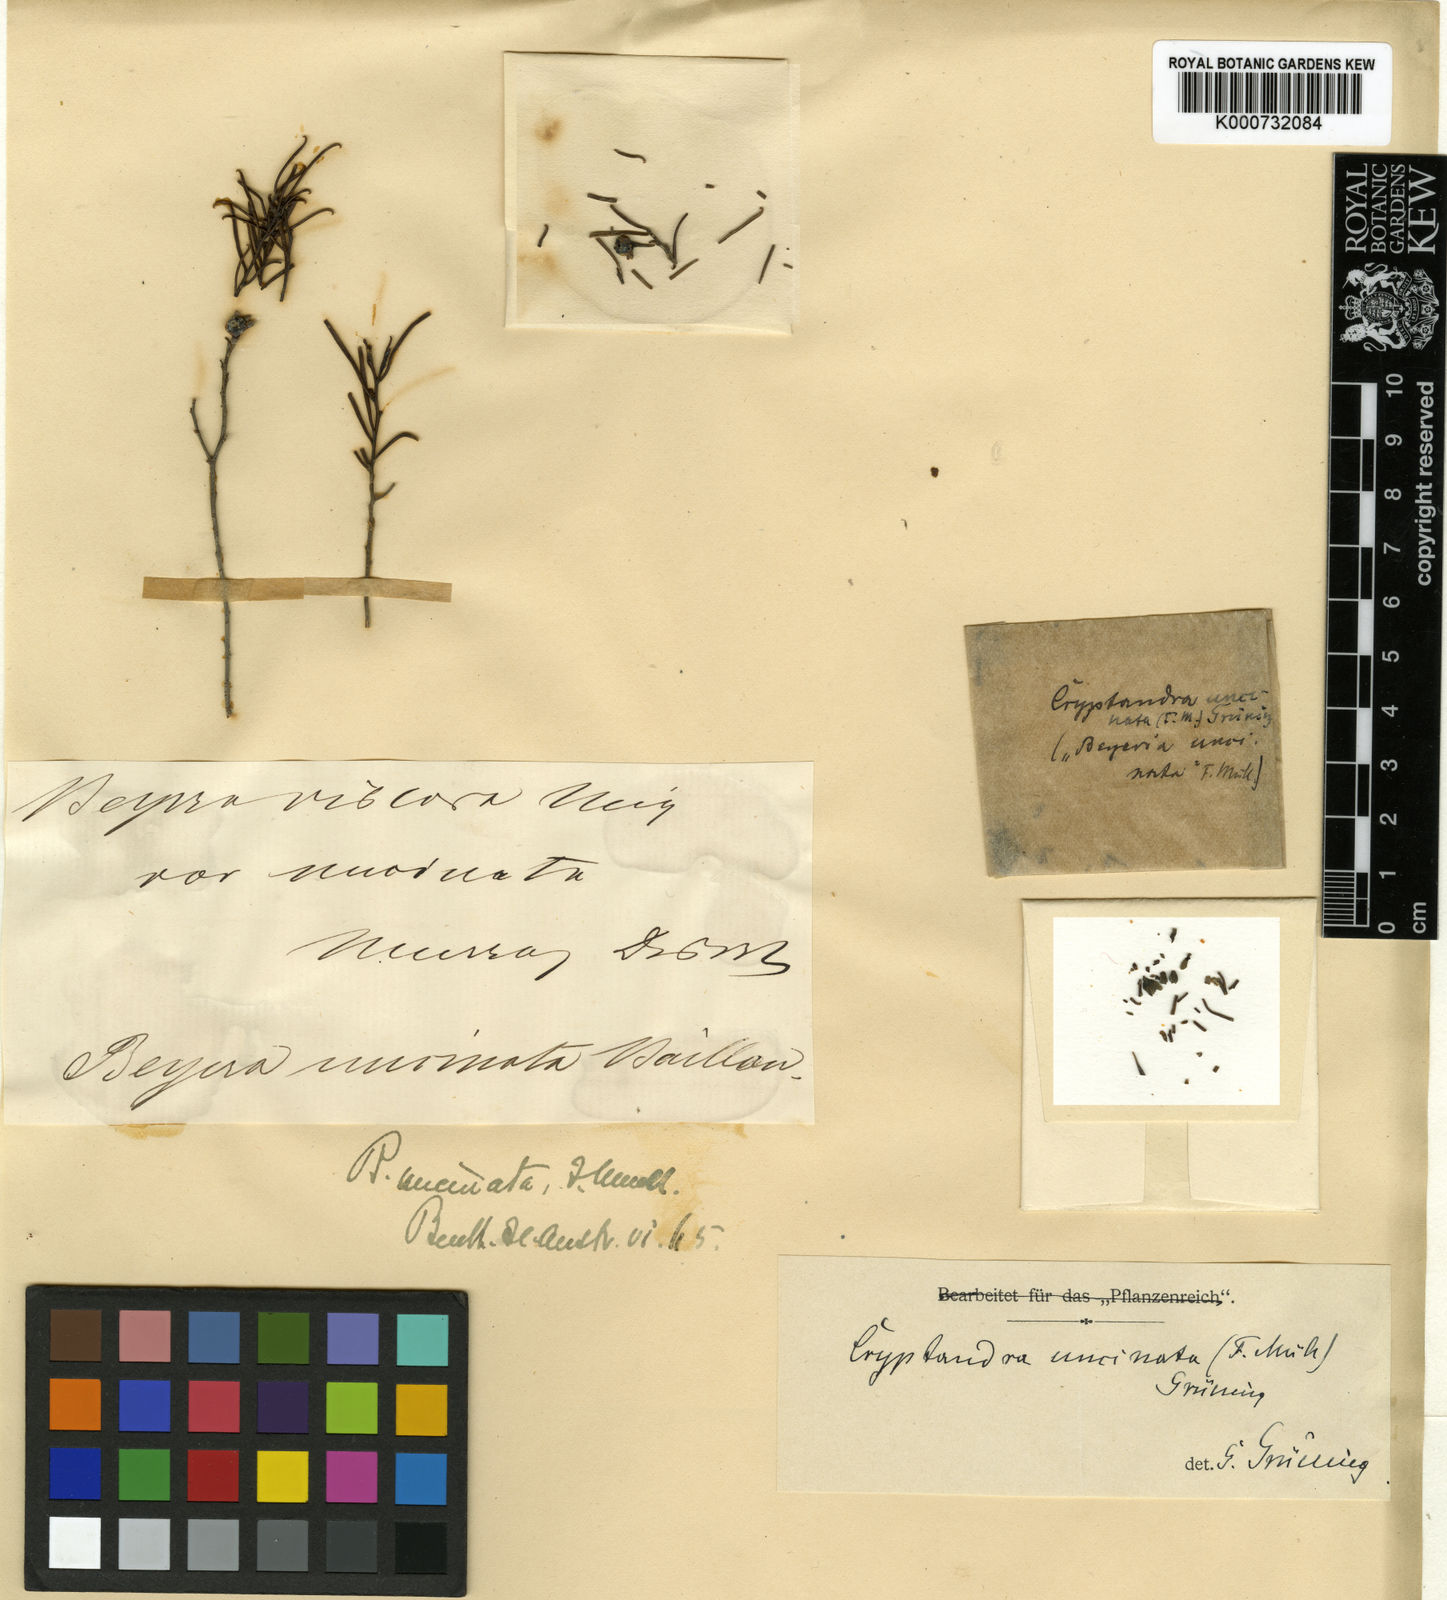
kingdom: Plantae
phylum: Tracheophyta
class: Magnoliopsida
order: Rosales
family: Rhamnaceae
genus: Cryptandra
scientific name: Cryptandra
